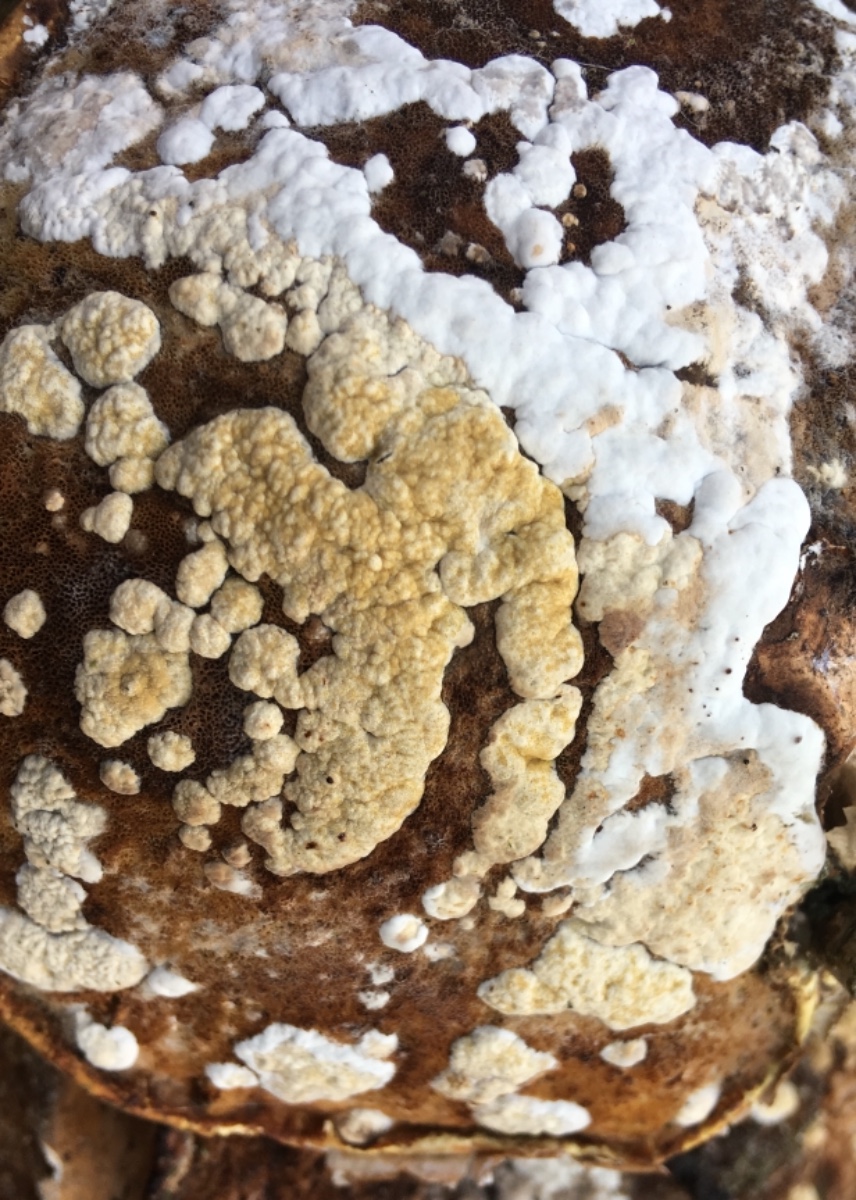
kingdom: Fungi
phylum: Ascomycota
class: Sordariomycetes
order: Hypocreales
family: Hypocreaceae
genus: Trichoderma
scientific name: Trichoderma pulvinatum
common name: snyltende kødkerne
